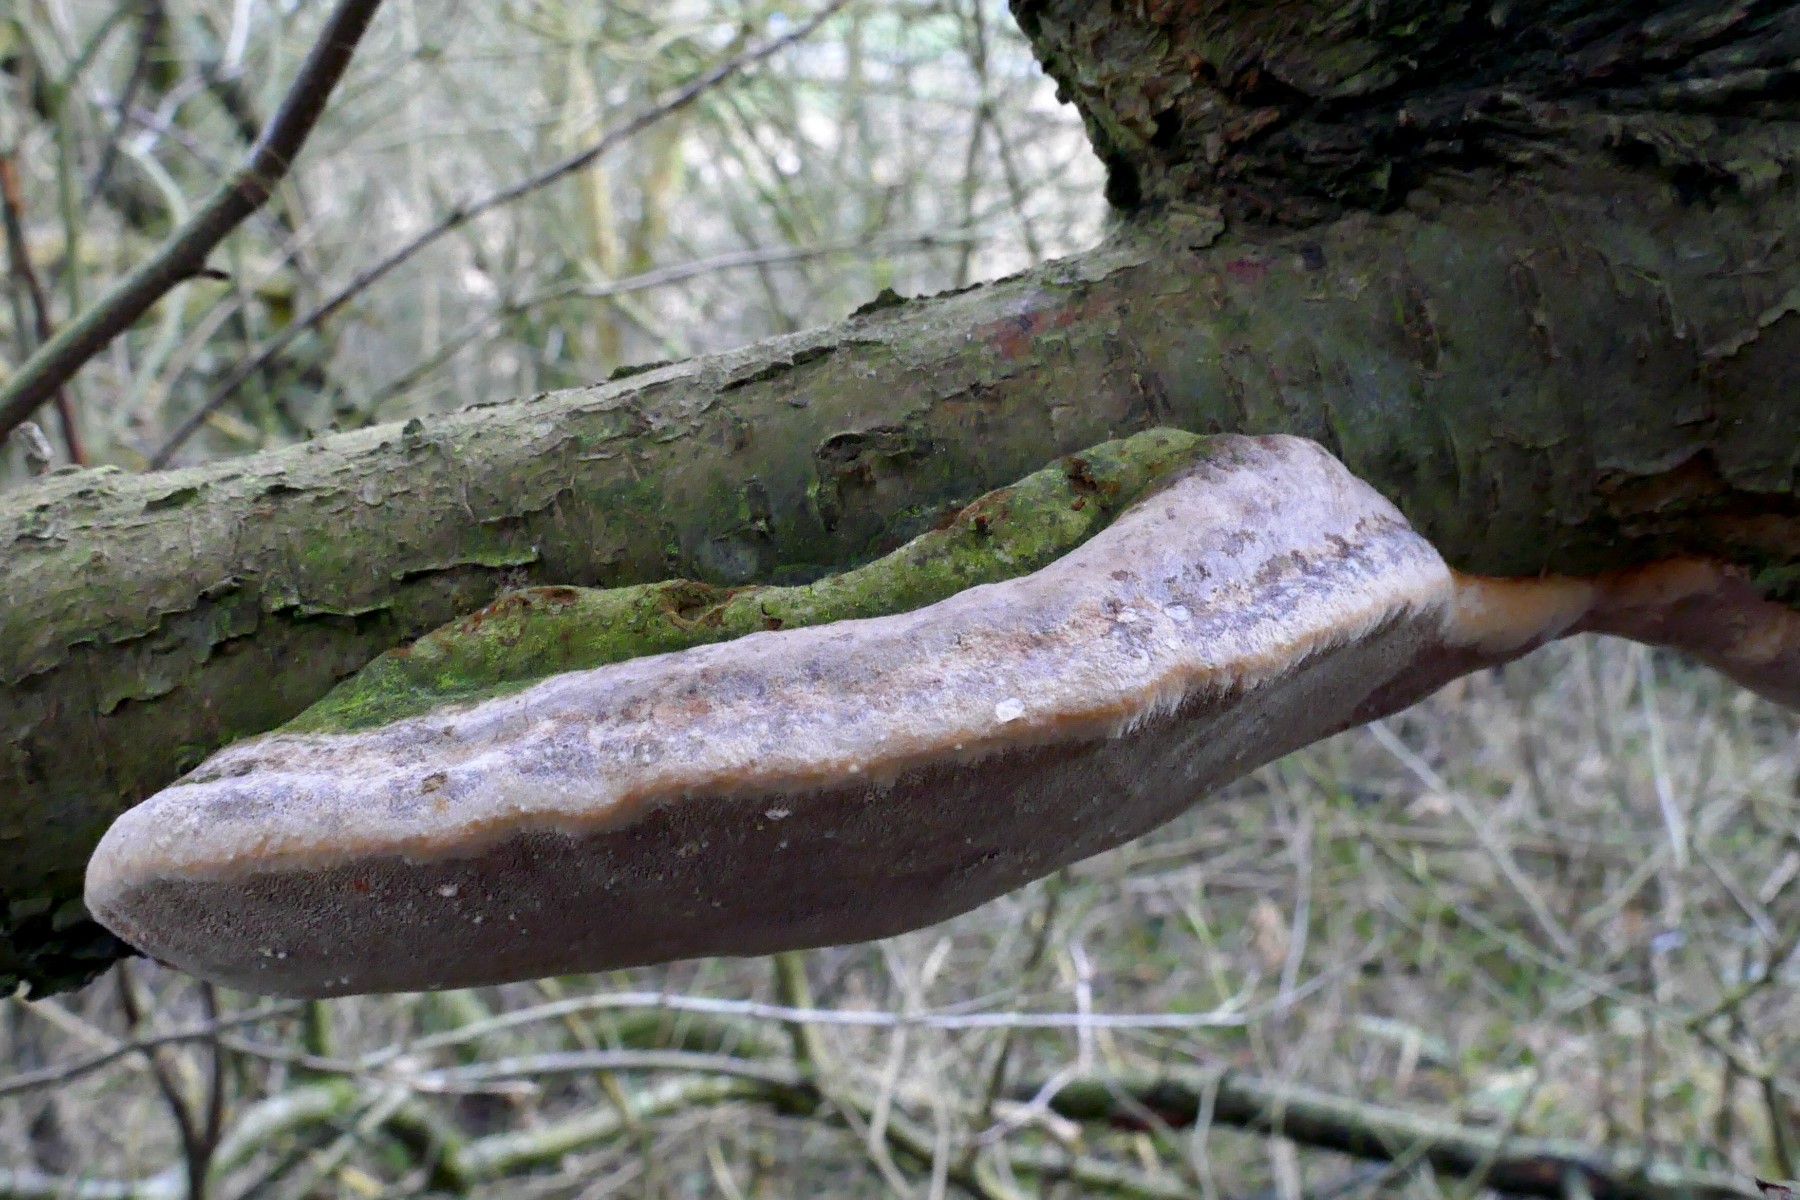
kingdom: Fungi
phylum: Basidiomycota
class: Agaricomycetes
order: Hymenochaetales
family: Hymenochaetaceae
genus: Phellinus
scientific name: Phellinus pomaceus
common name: blomme-ildporesvamp
